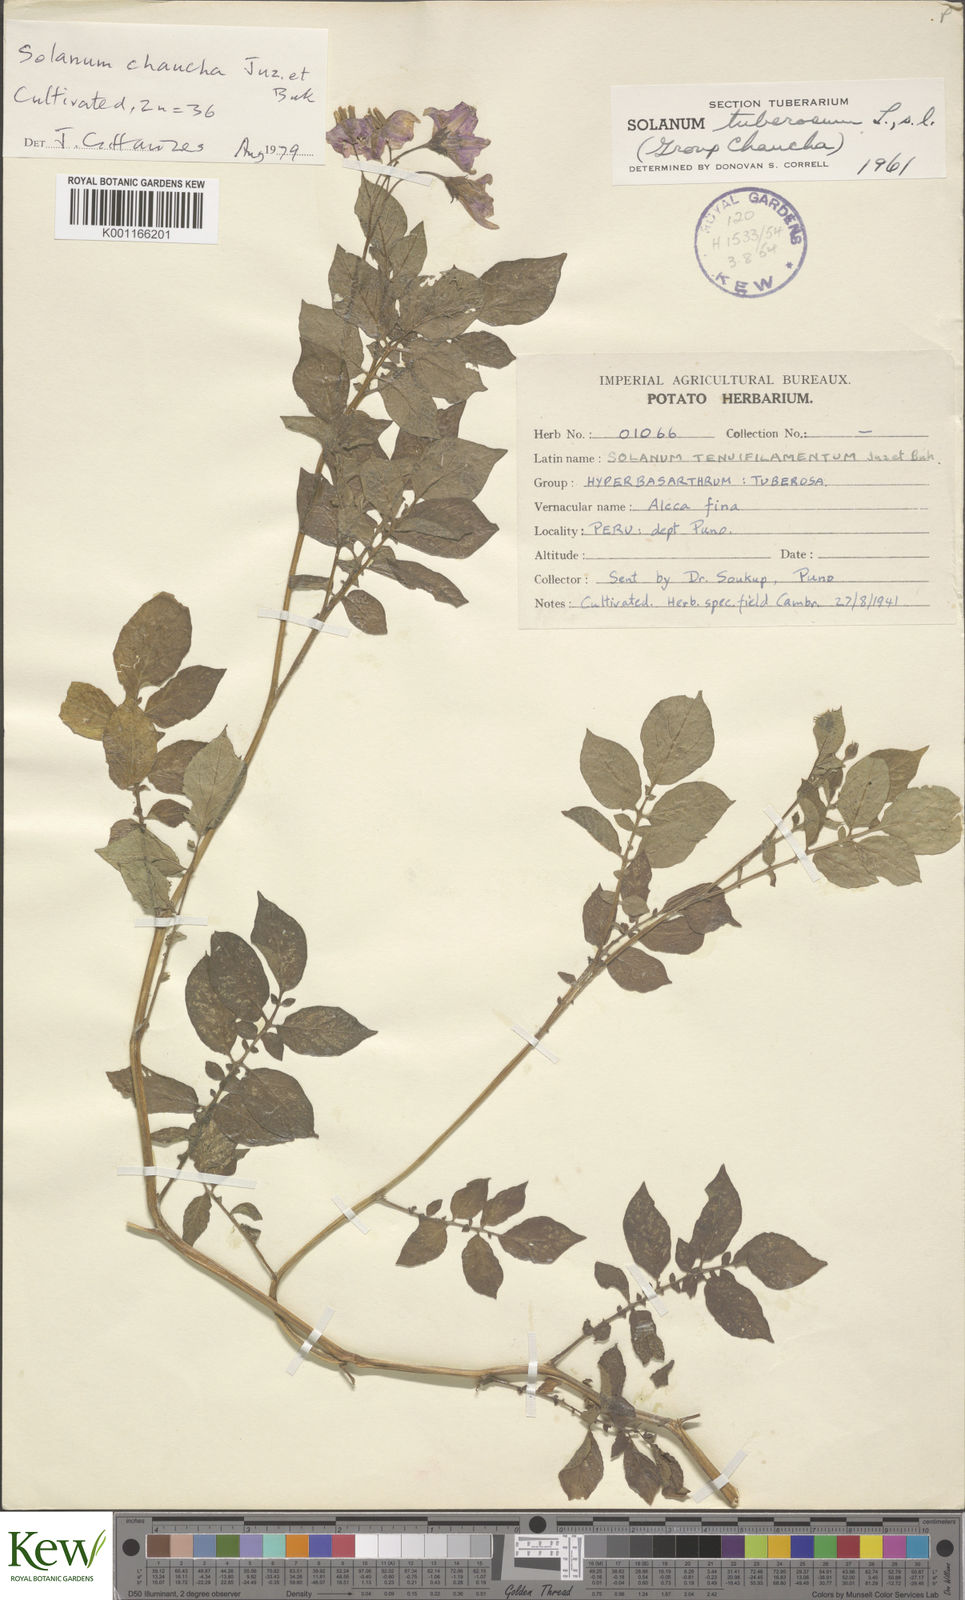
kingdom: Plantae
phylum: Tracheophyta
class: Magnoliopsida
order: Solanales
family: Solanaceae
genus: Solanum
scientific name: Solanum
